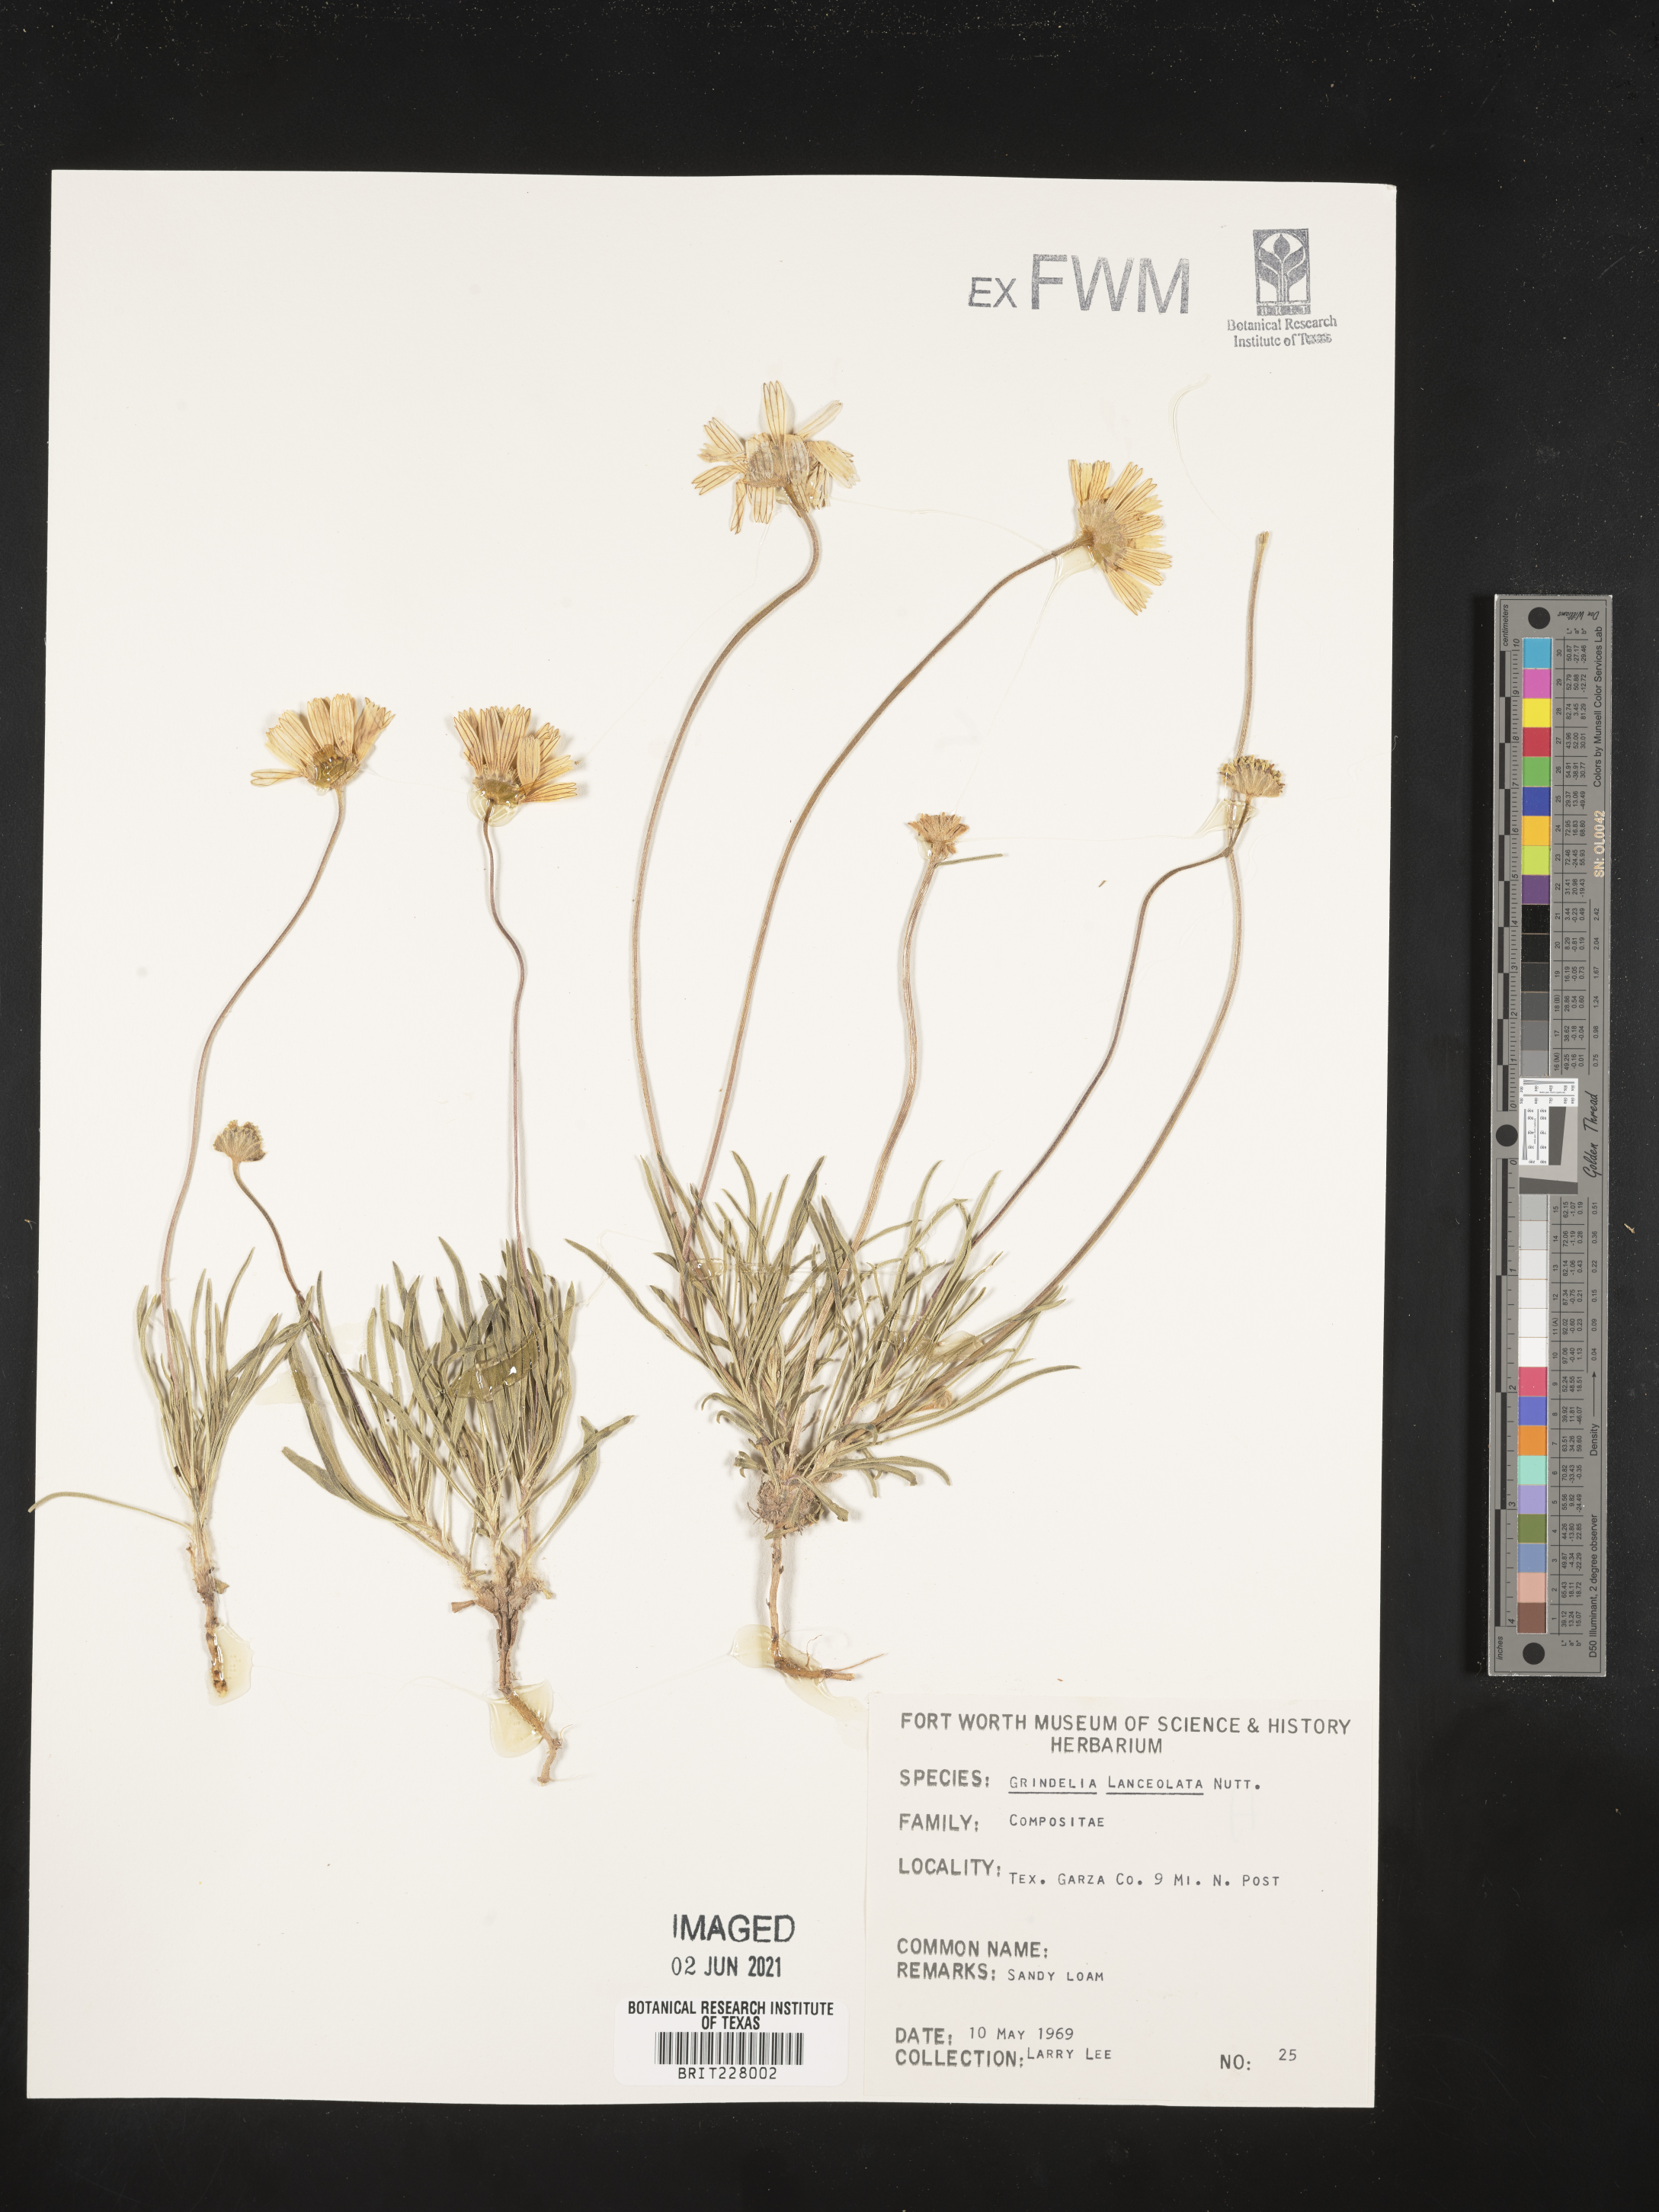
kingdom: Plantae
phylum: Tracheophyta
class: Magnoliopsida
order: Asterales
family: Asteraceae
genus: Grindelia
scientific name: Grindelia lanceolata
